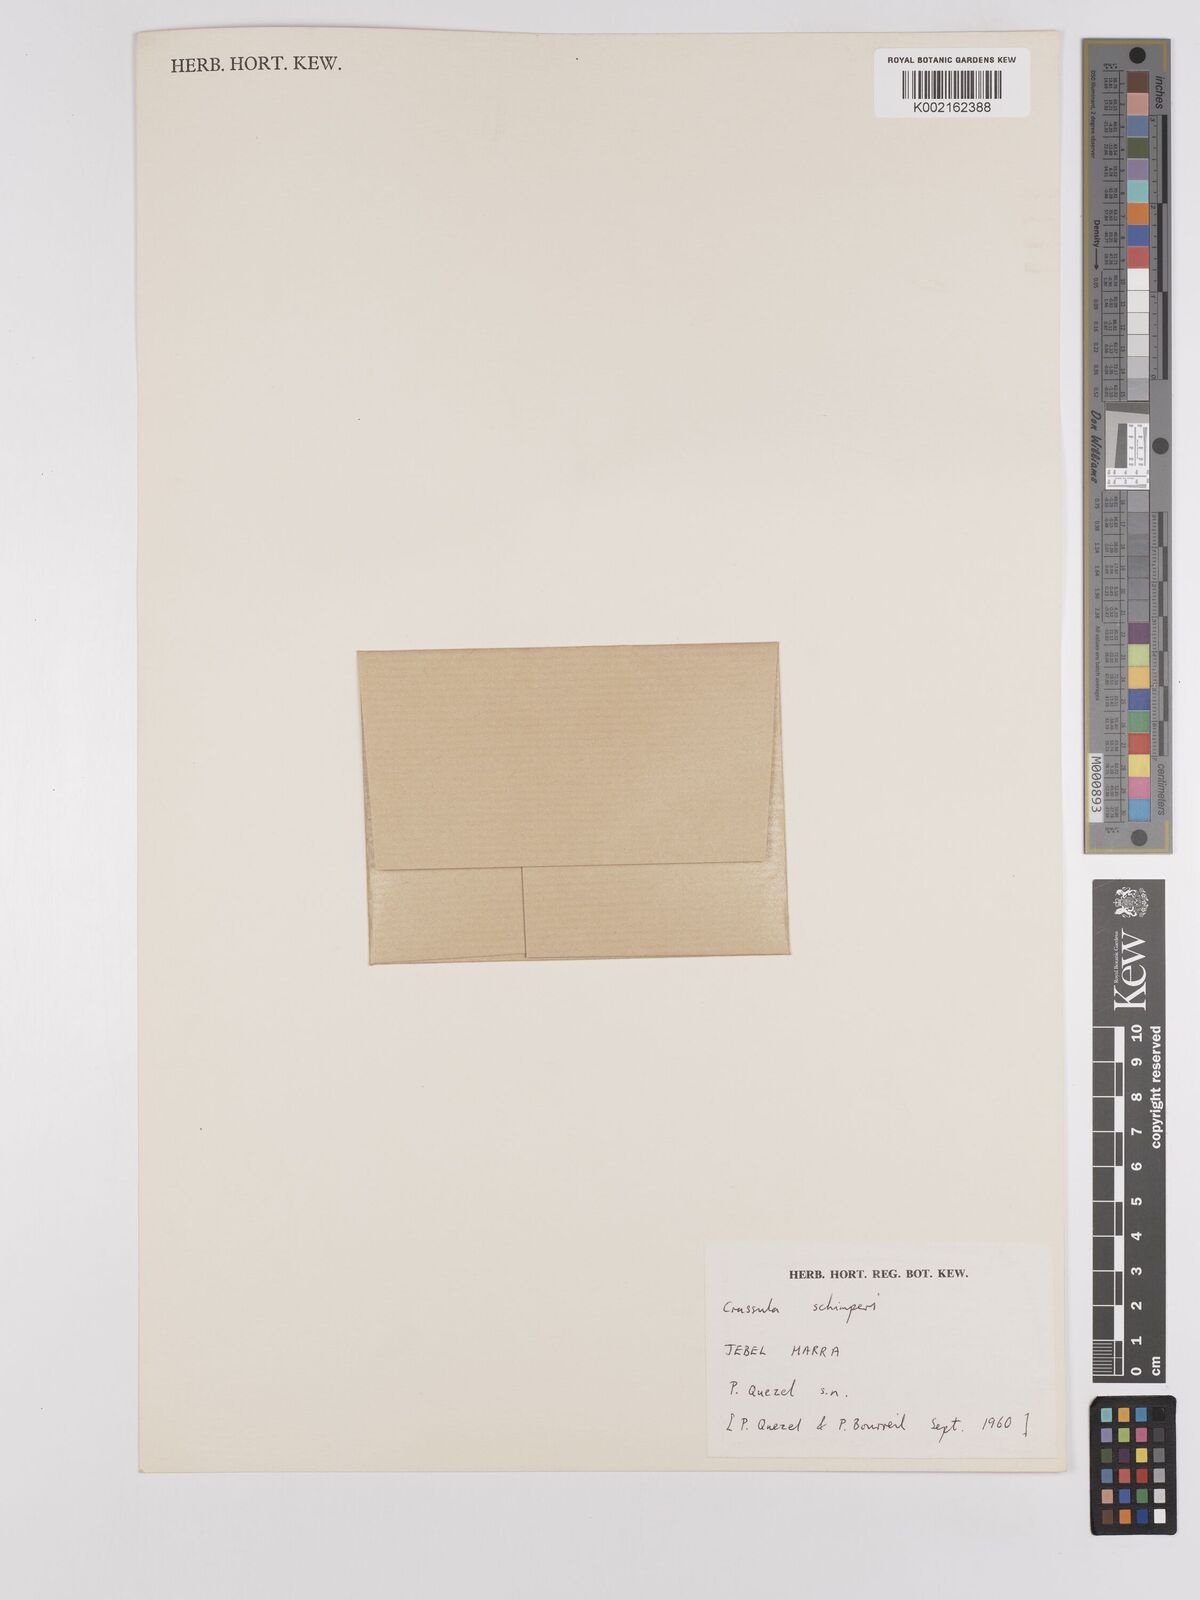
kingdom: Plantae
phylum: Tracheophyta
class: Magnoliopsida
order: Saxifragales
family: Crassulaceae
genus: Crassula
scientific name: Crassula schimperi
